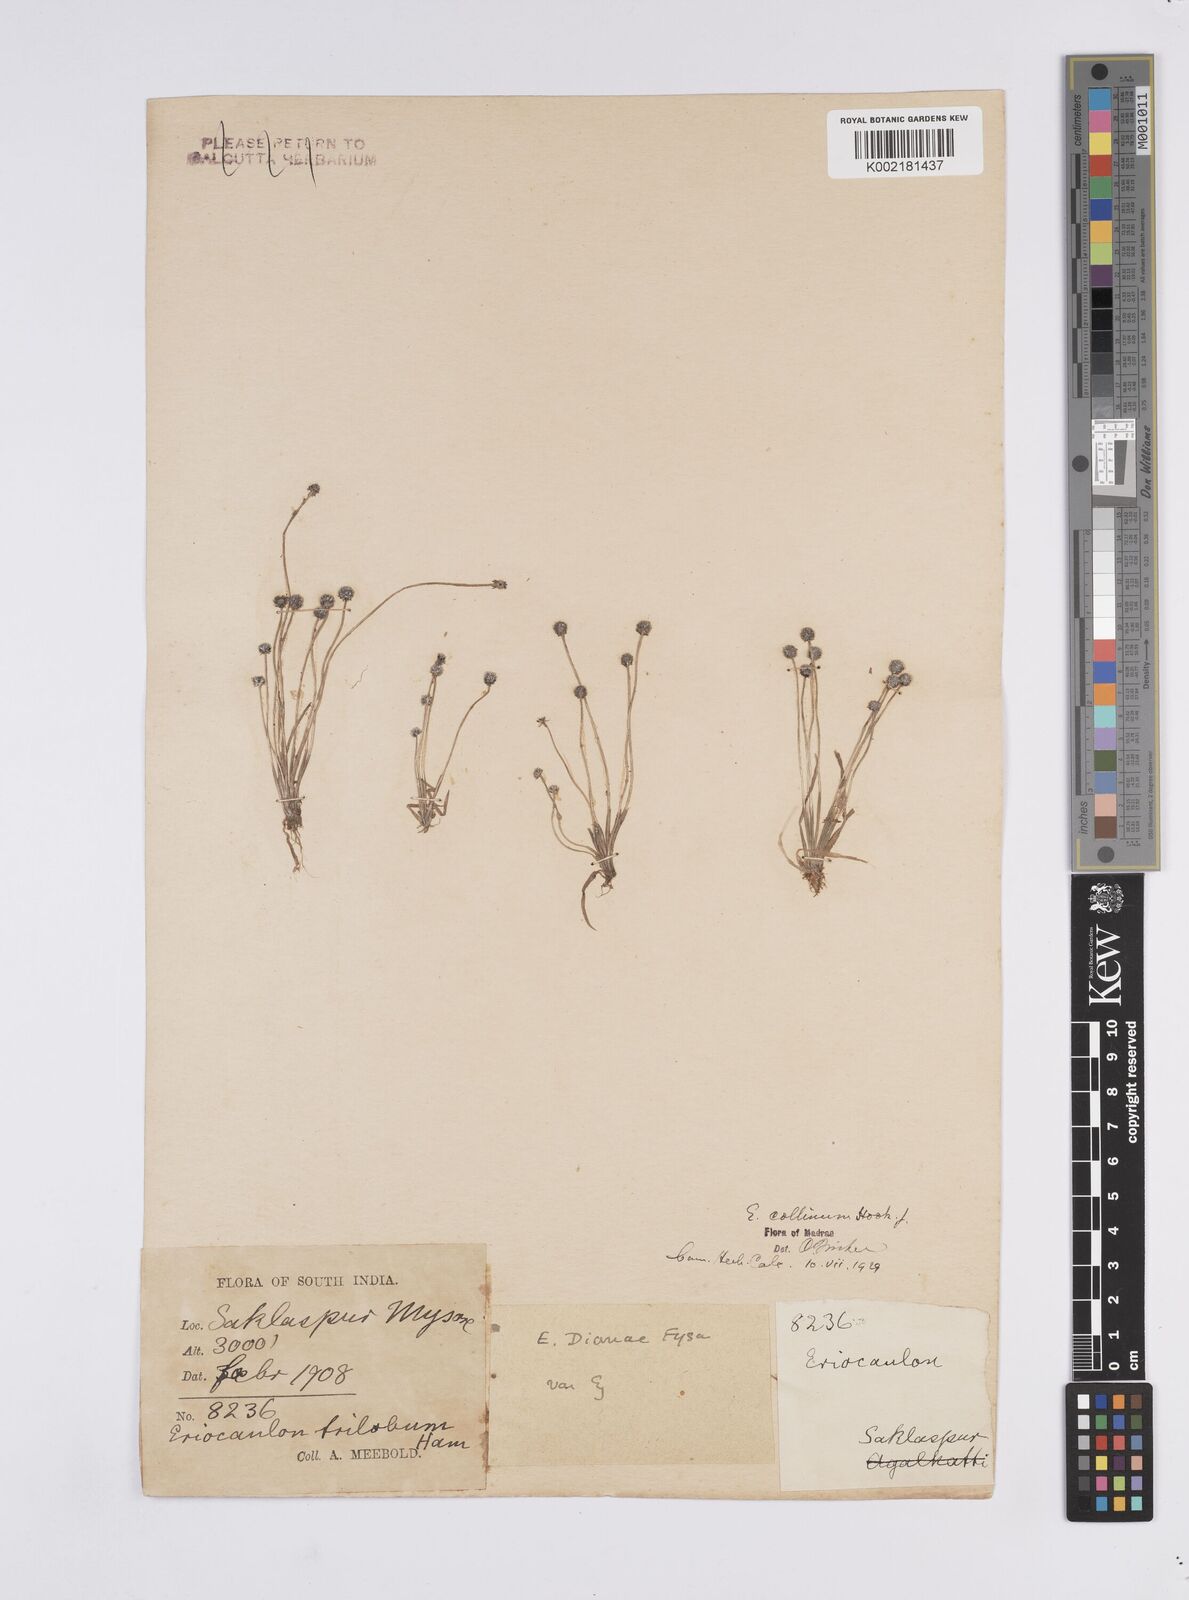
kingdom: Plantae
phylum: Tracheophyta
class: Liliopsida
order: Poales
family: Eriocaulaceae
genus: Eriocaulon
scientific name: Eriocaulon odoratum
